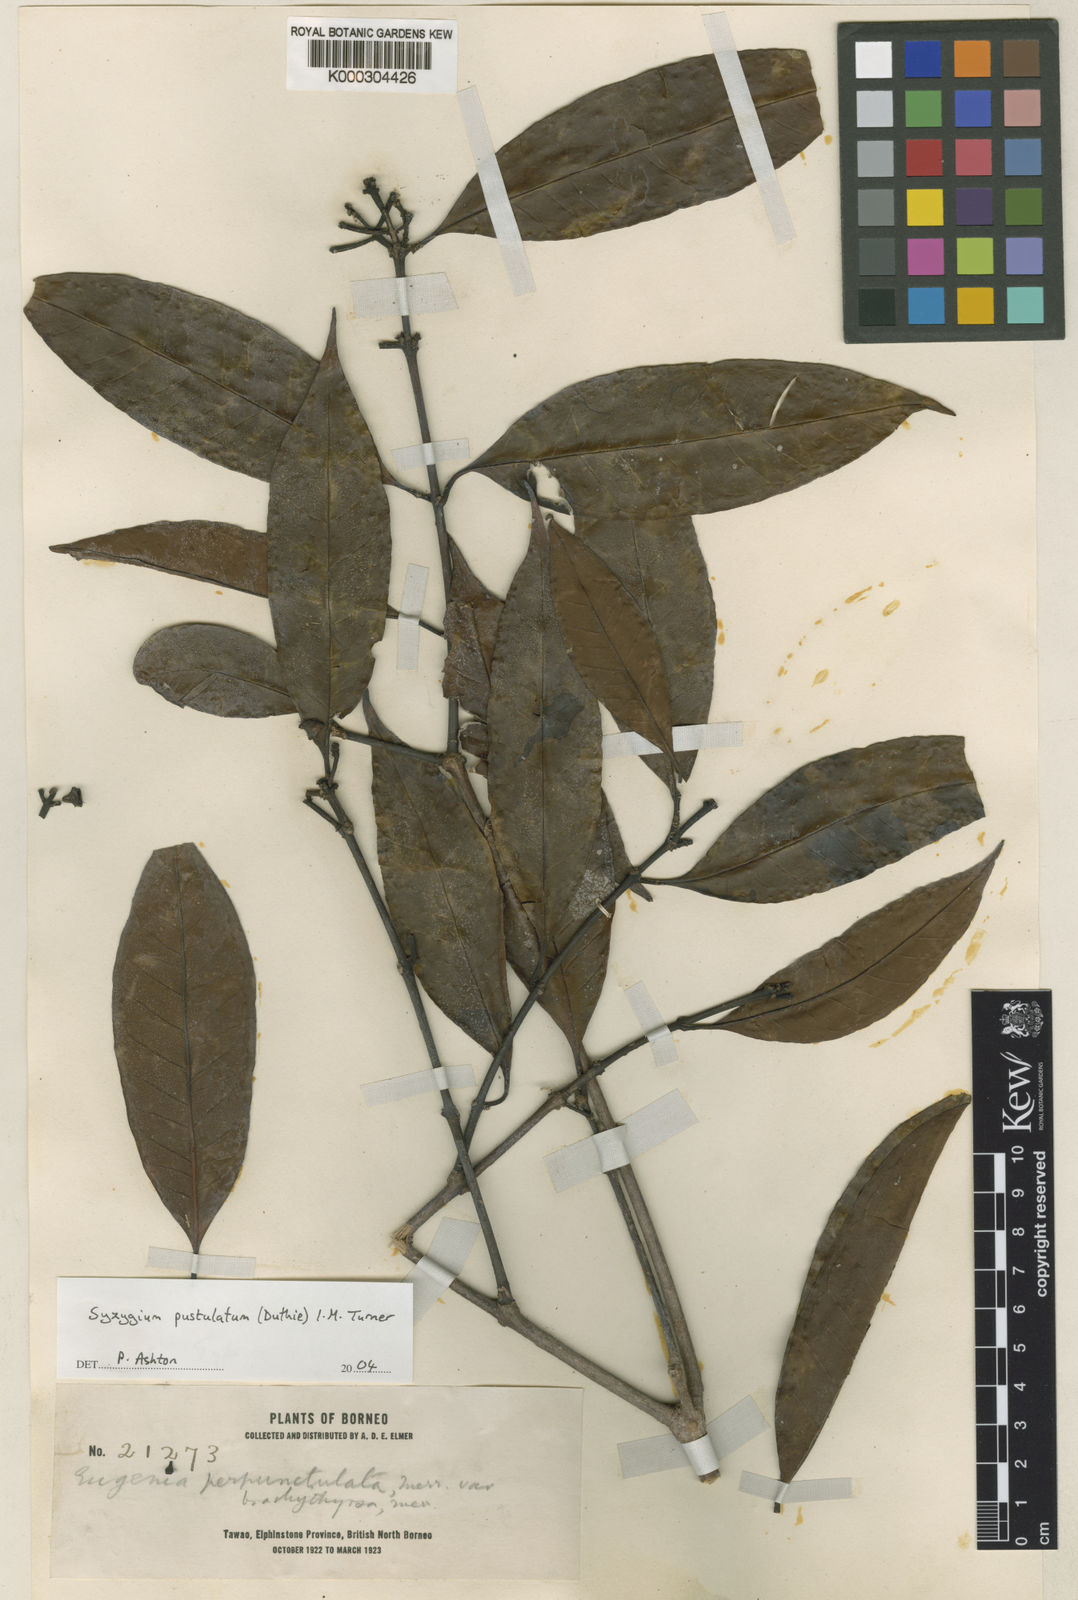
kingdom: Plantae
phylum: Tracheophyta
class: Magnoliopsida
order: Myrtales
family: Myrtaceae
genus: Syzygium
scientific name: Syzygium pustulatum
